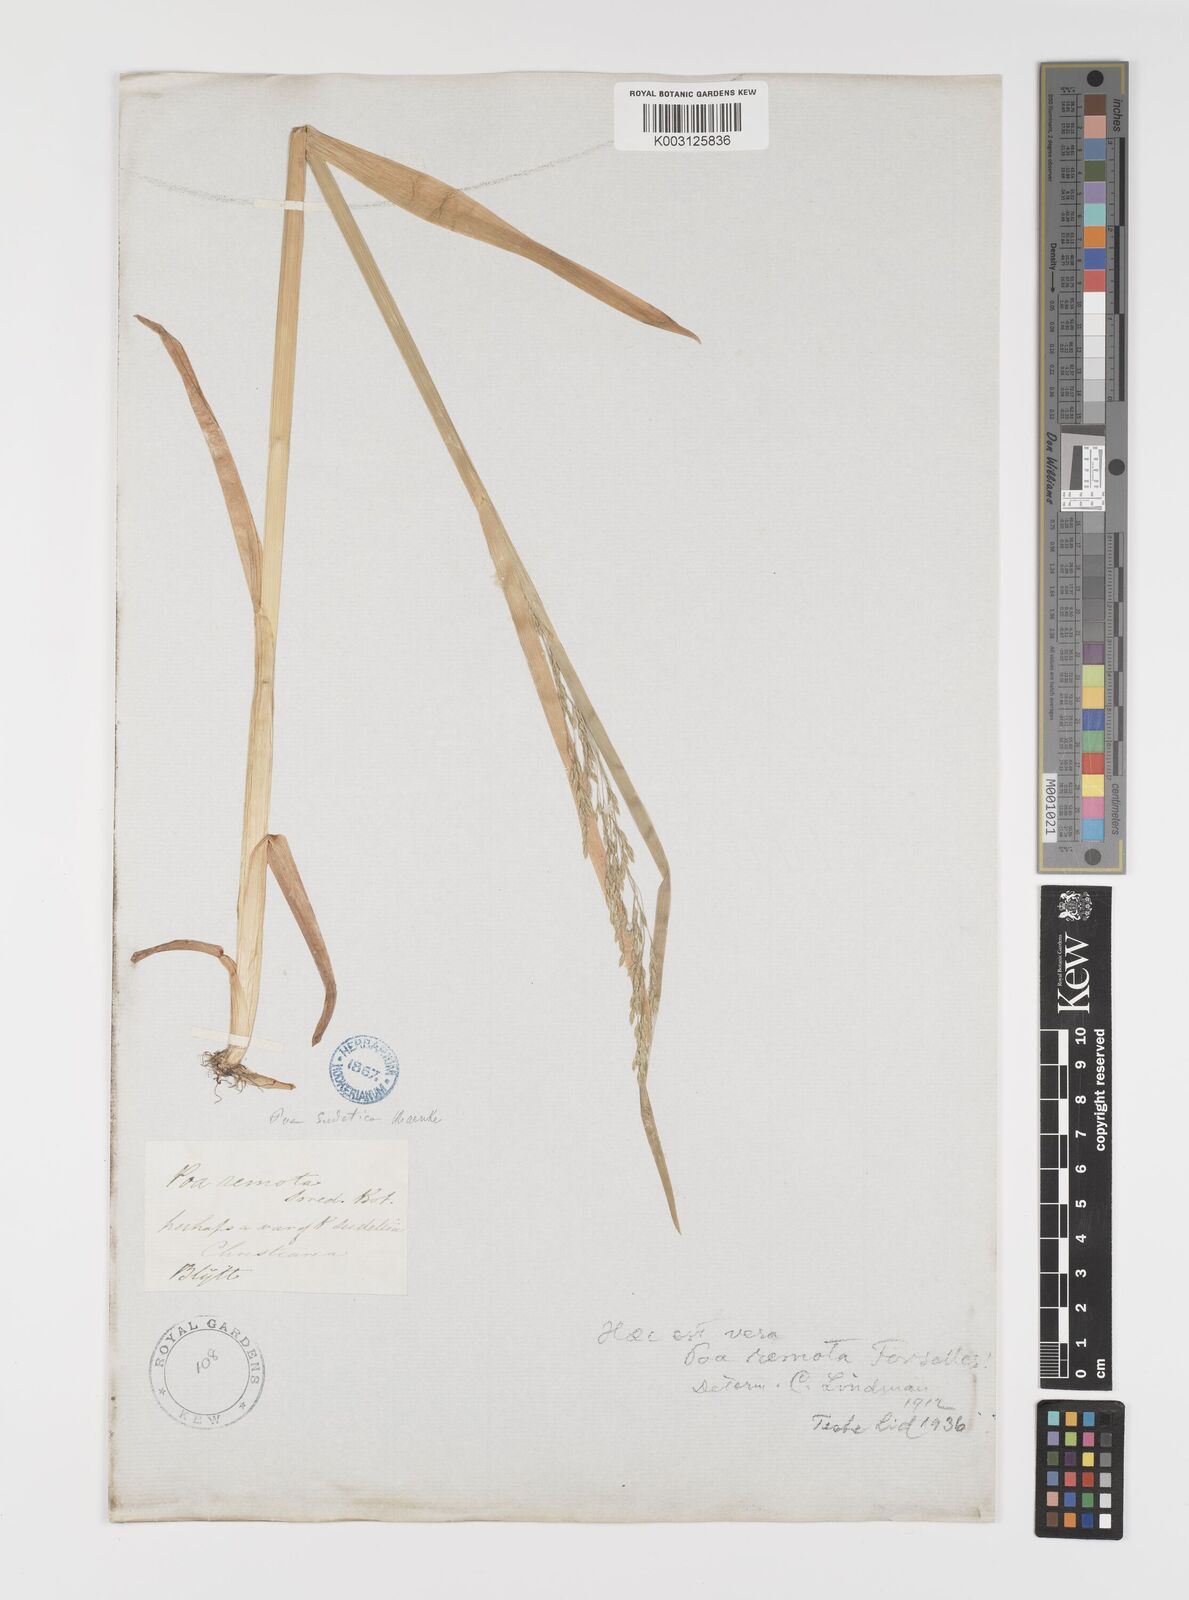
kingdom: Plantae
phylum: Tracheophyta
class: Liliopsida
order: Poales
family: Poaceae
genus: Poa
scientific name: Poa remota
